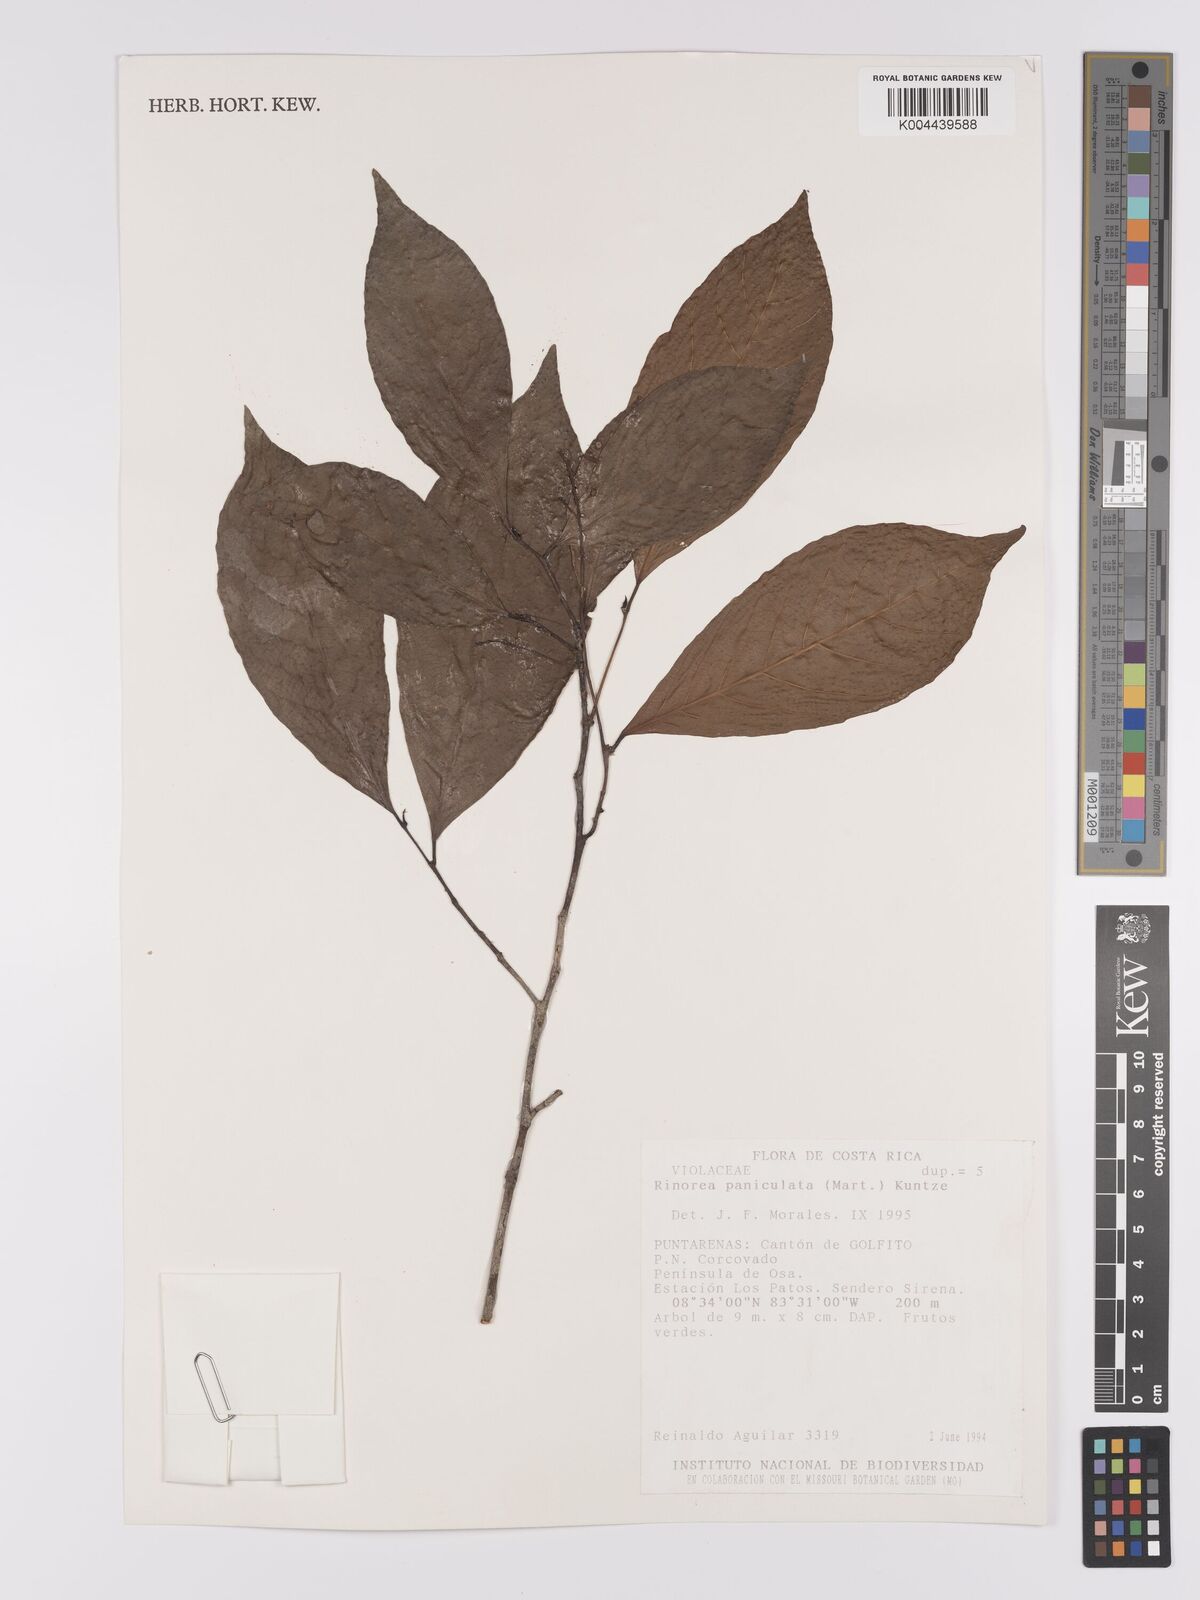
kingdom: Plantae
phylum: Tracheophyta
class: Magnoliopsida
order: Malpighiales
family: Violaceae
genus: Rinorea
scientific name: Rinorea paniculata
